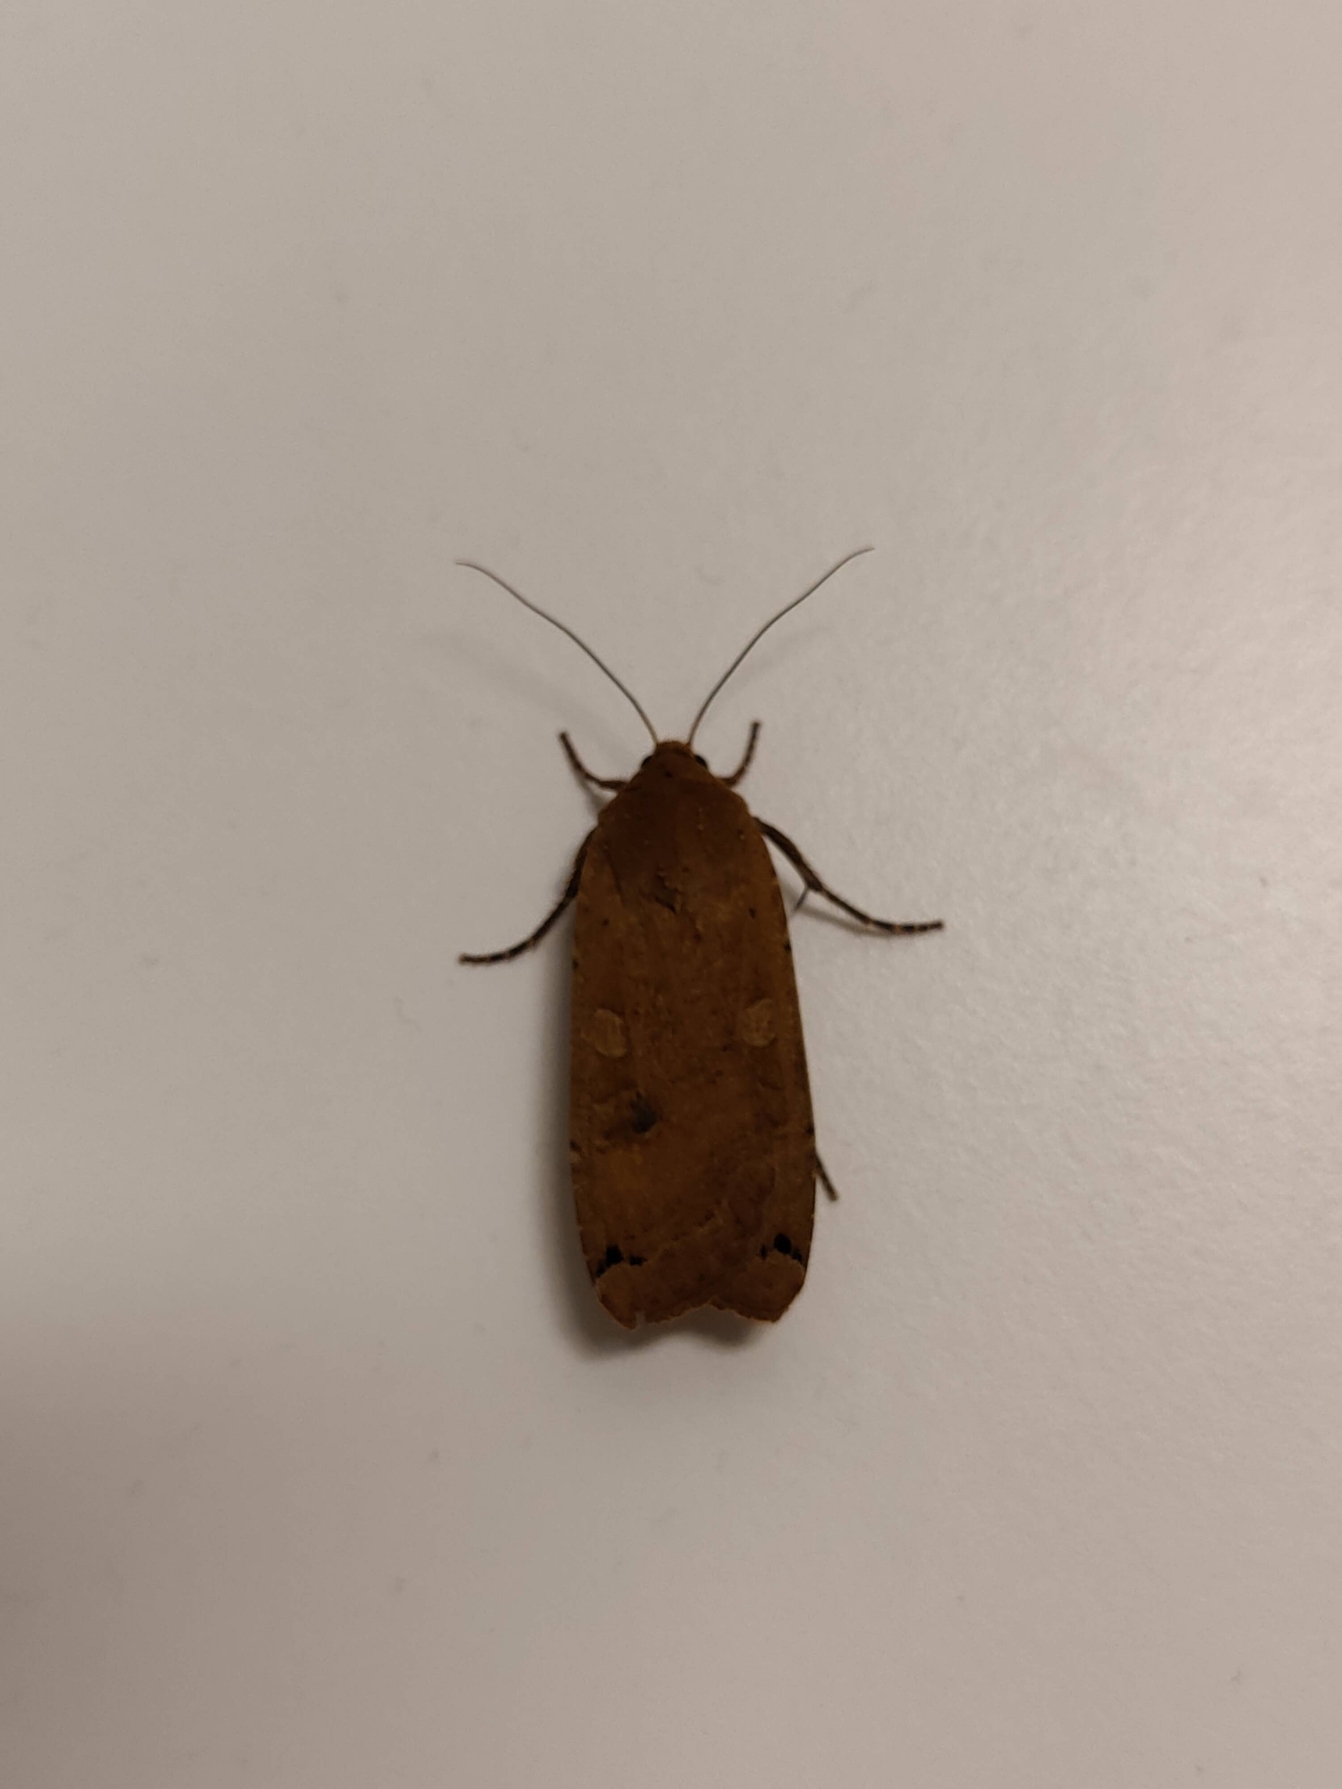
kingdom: Animalia
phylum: Arthropoda
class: Insecta
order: Lepidoptera
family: Noctuidae
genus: Noctua
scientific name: Noctua pronuba
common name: Stor smutugle
